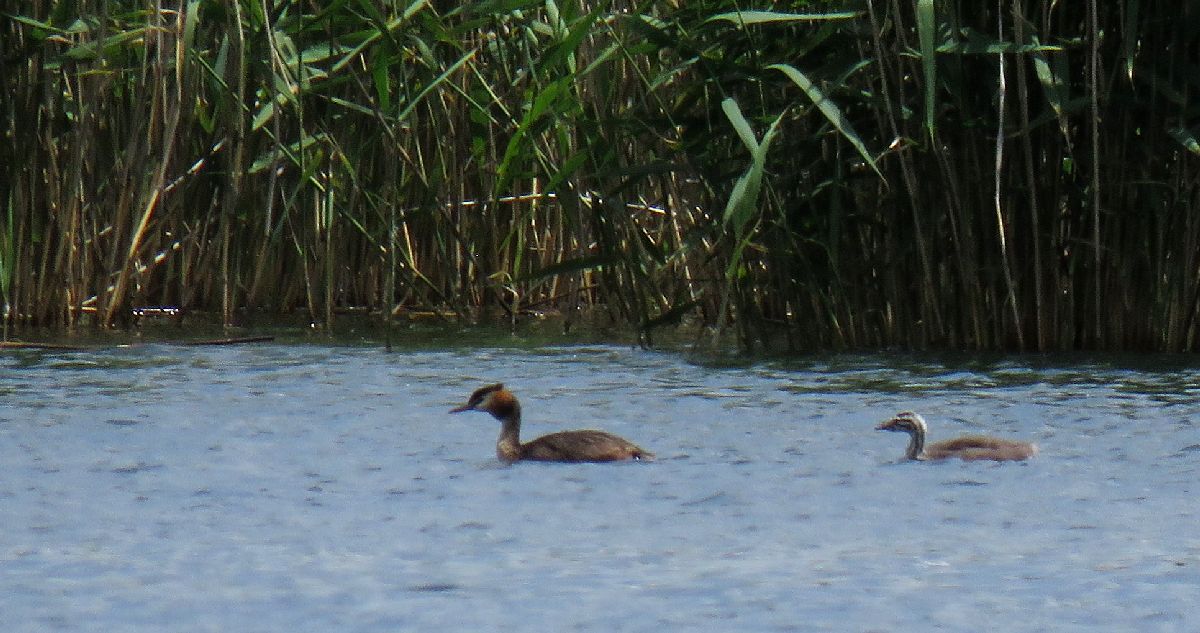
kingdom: Animalia
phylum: Chordata
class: Aves
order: Podicipediformes
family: Podicipedidae
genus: Podiceps
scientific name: Podiceps cristatus
